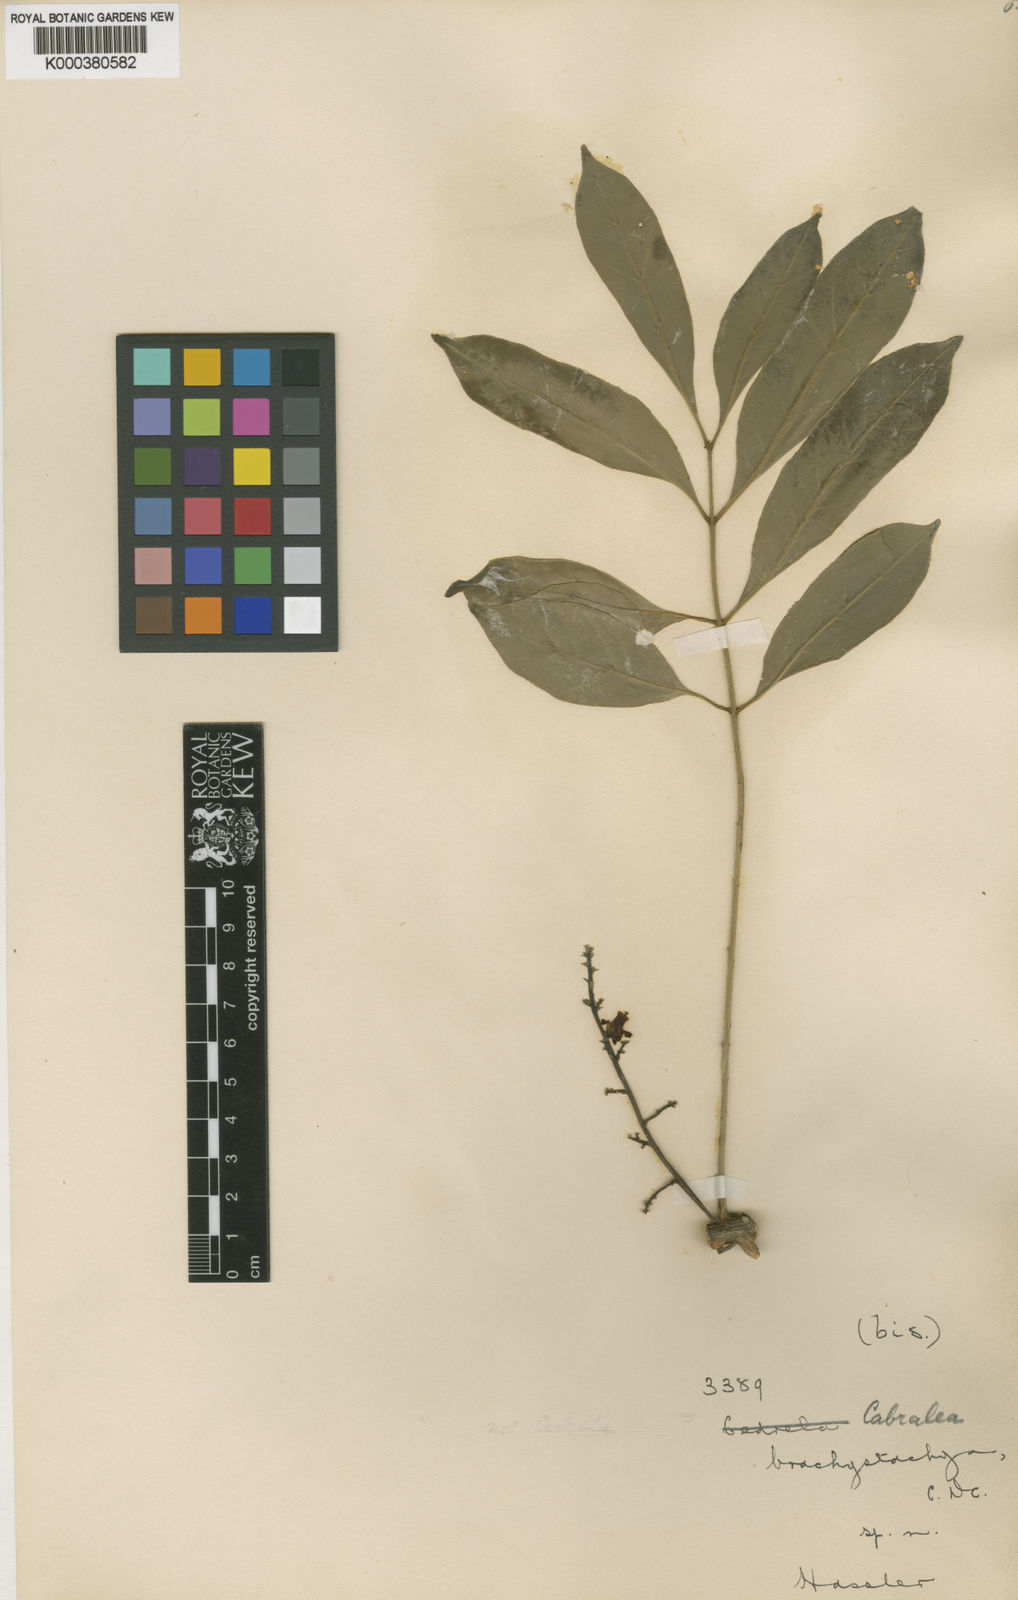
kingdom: Plantae
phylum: Tracheophyta
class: Magnoliopsida
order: Sapindales
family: Meliaceae
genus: Cabralea
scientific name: Cabralea canjerana
